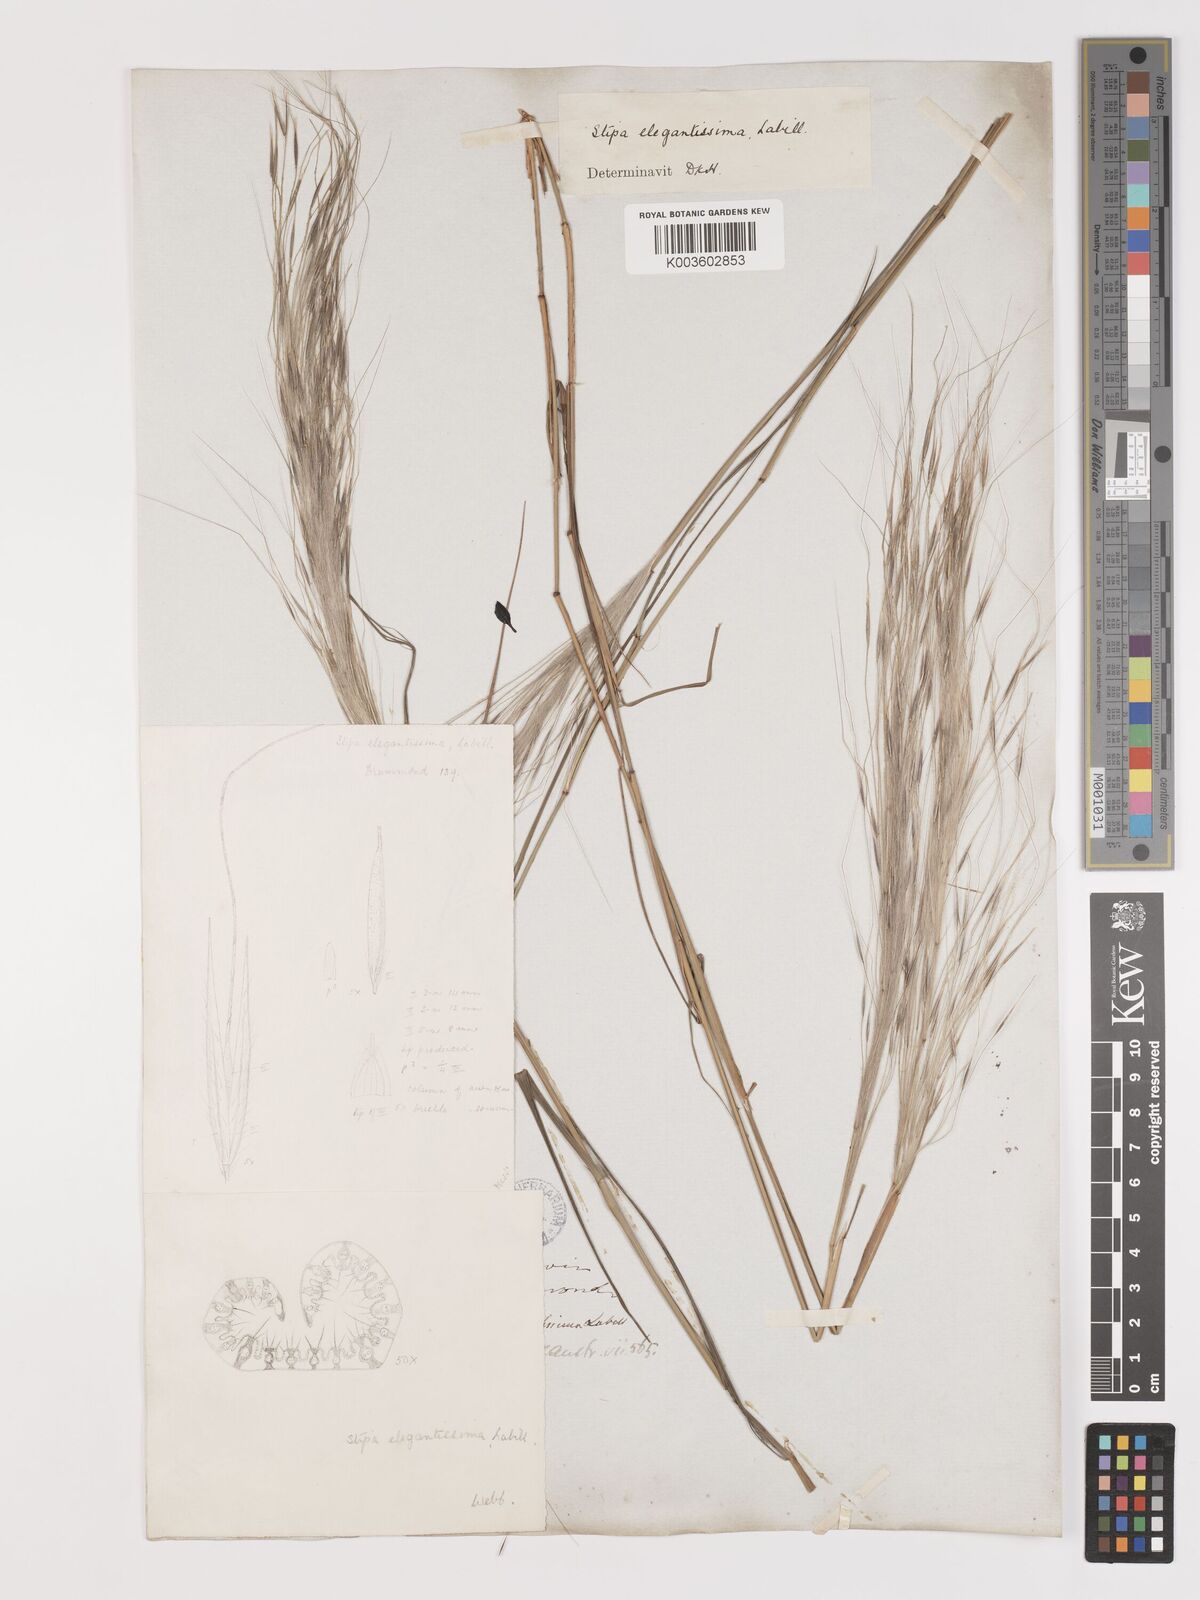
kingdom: Plantae
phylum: Tracheophyta
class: Liliopsida
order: Poales
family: Poaceae
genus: Austrostipa
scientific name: Austrostipa elegantissima
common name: Feather spear grass
